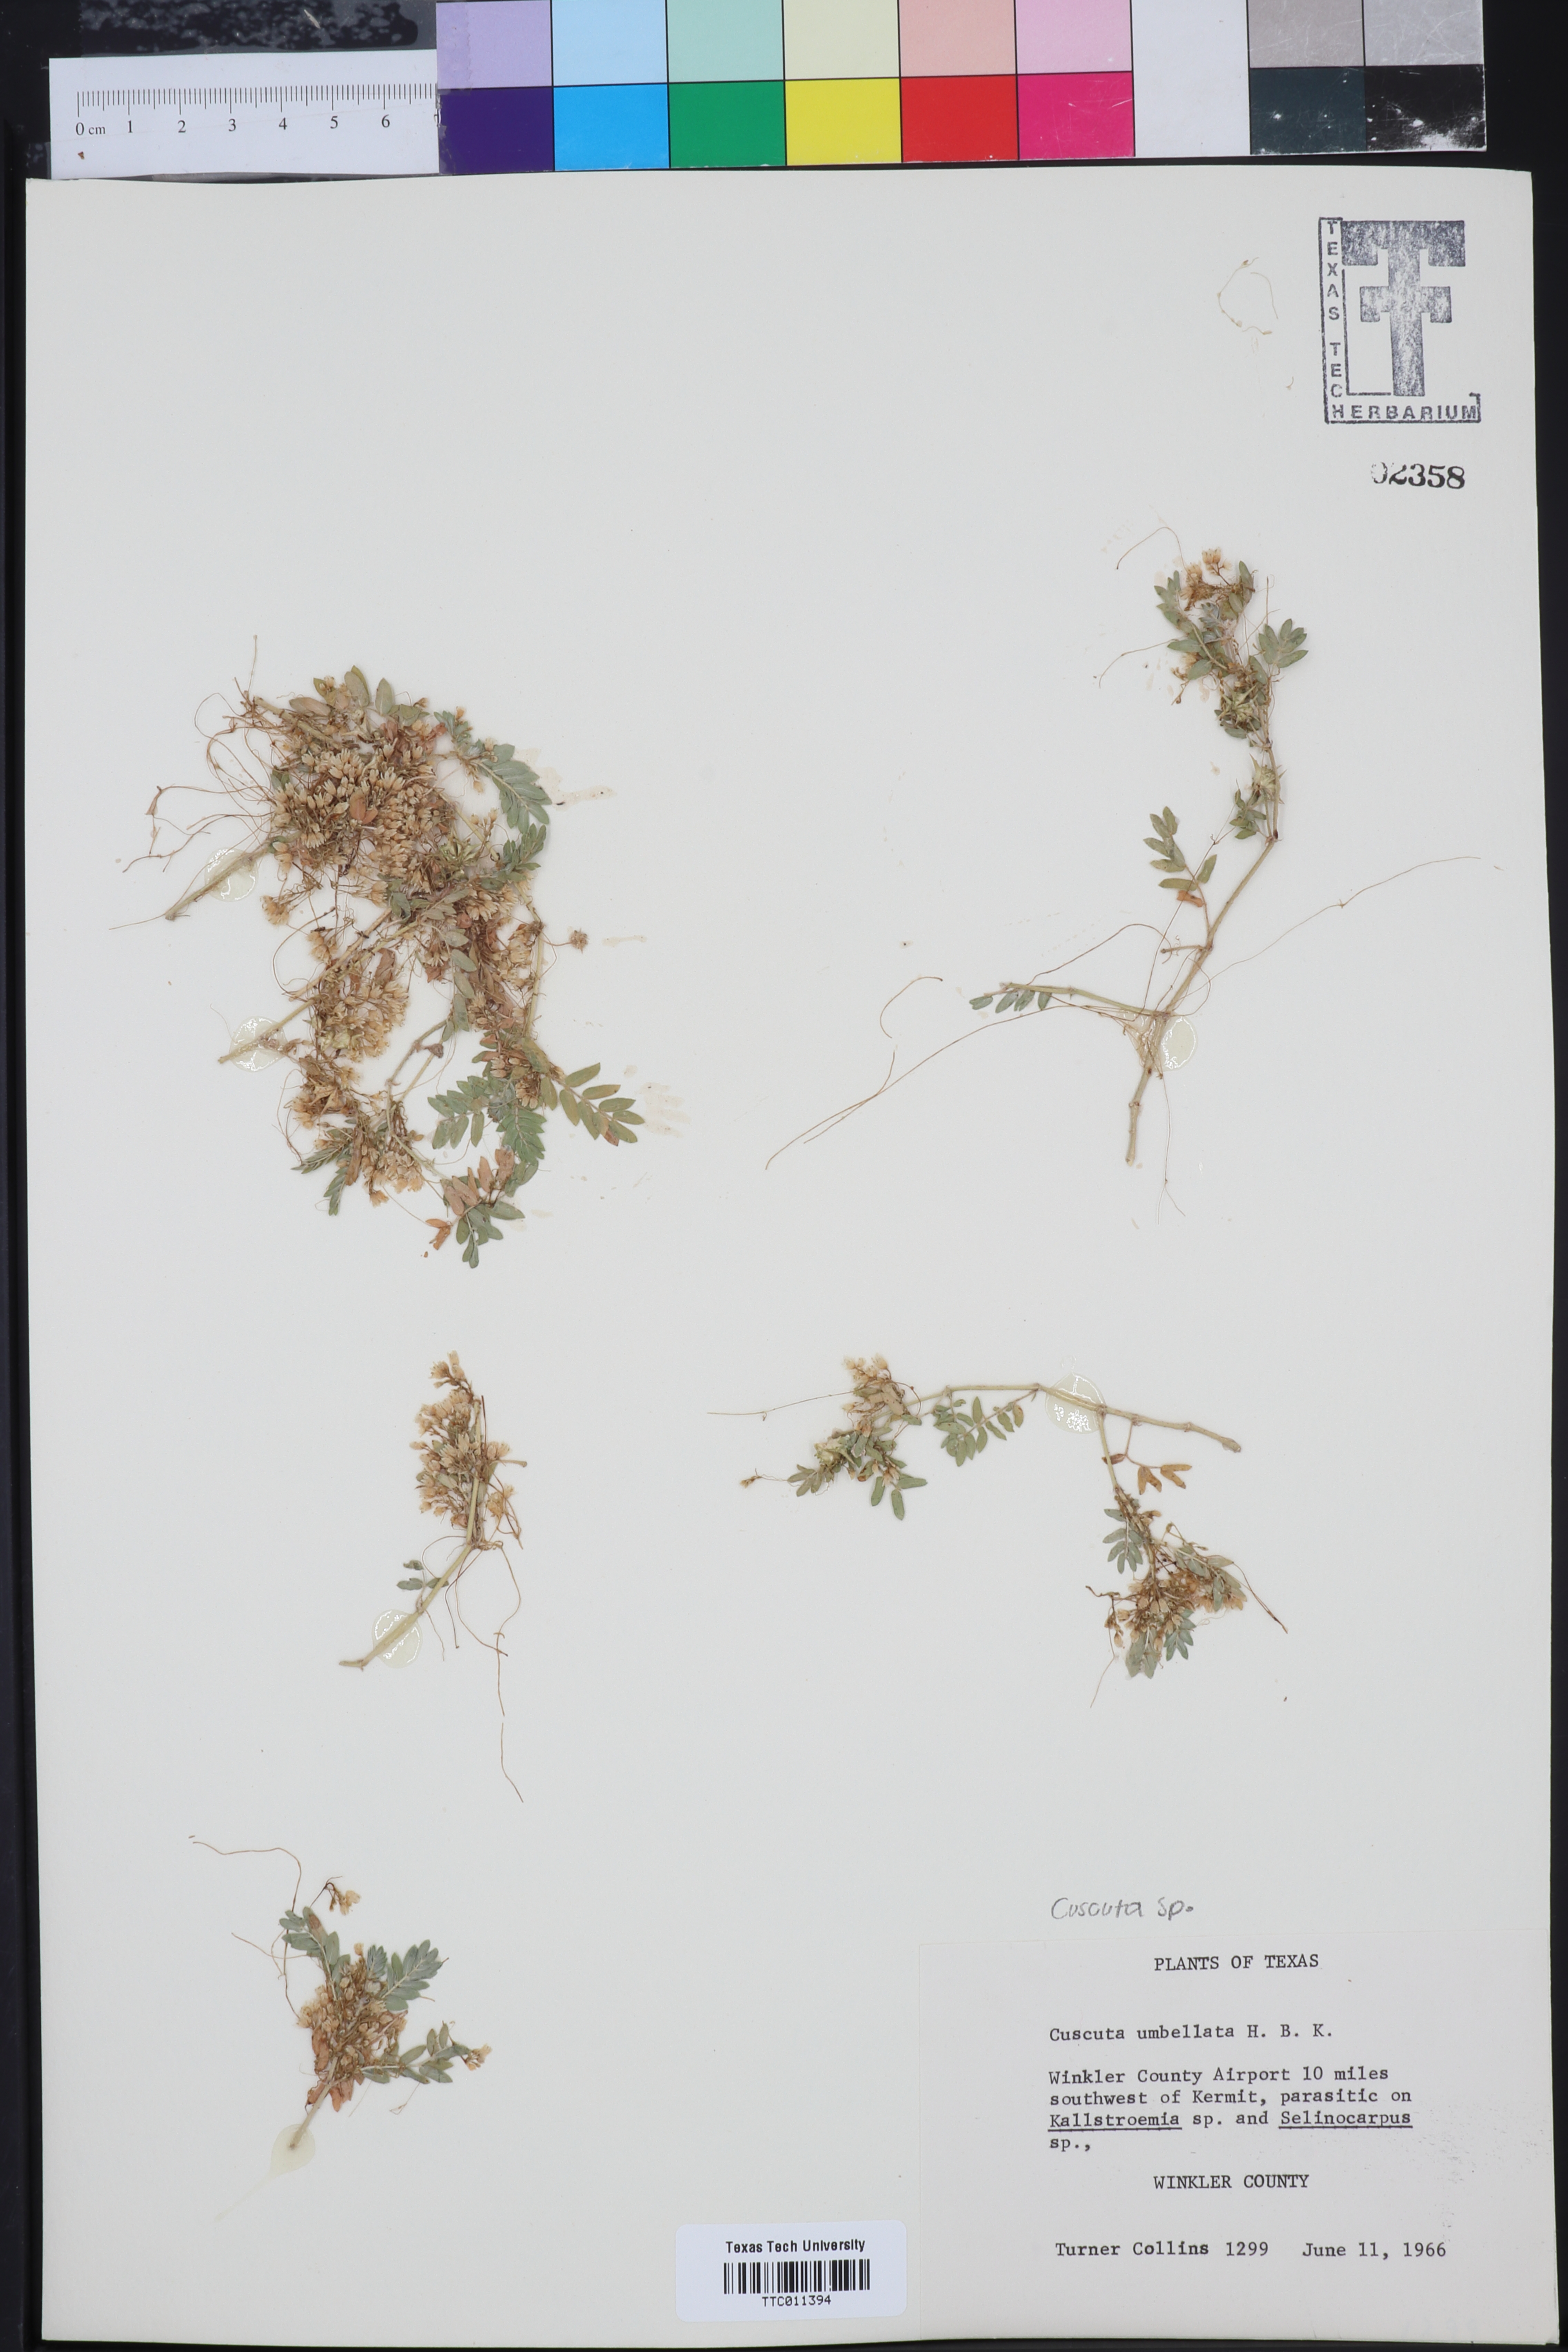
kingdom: Plantae
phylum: Tracheophyta
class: Magnoliopsida
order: Solanales
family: Convolvulaceae
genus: Cuscuta
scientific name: Cuscuta umbellata
